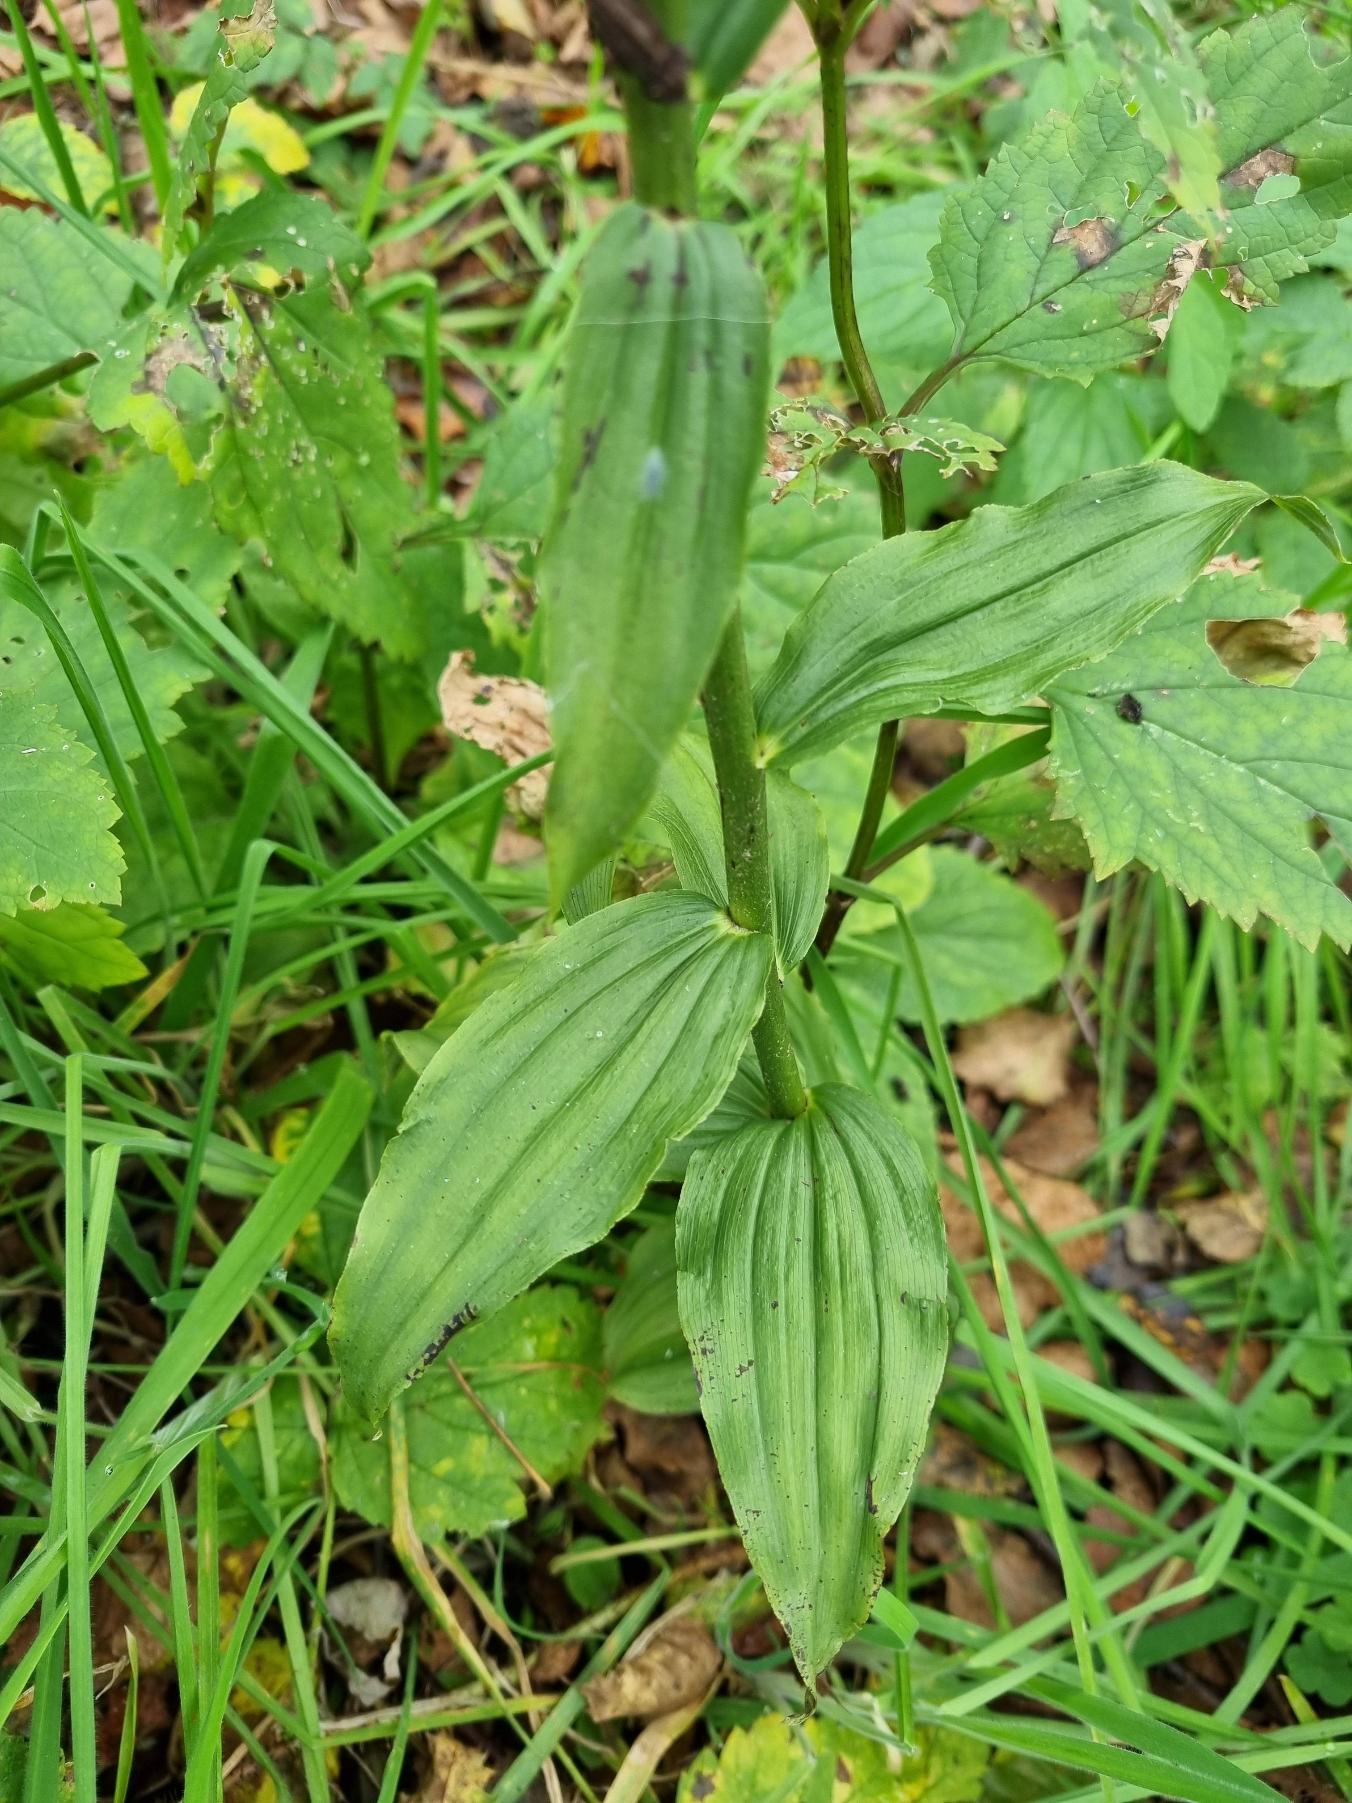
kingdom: Plantae
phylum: Tracheophyta
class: Liliopsida
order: Asparagales
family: Orchidaceae
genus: Epipactis
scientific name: Epipactis helleborine
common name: Skov-hullæbe
